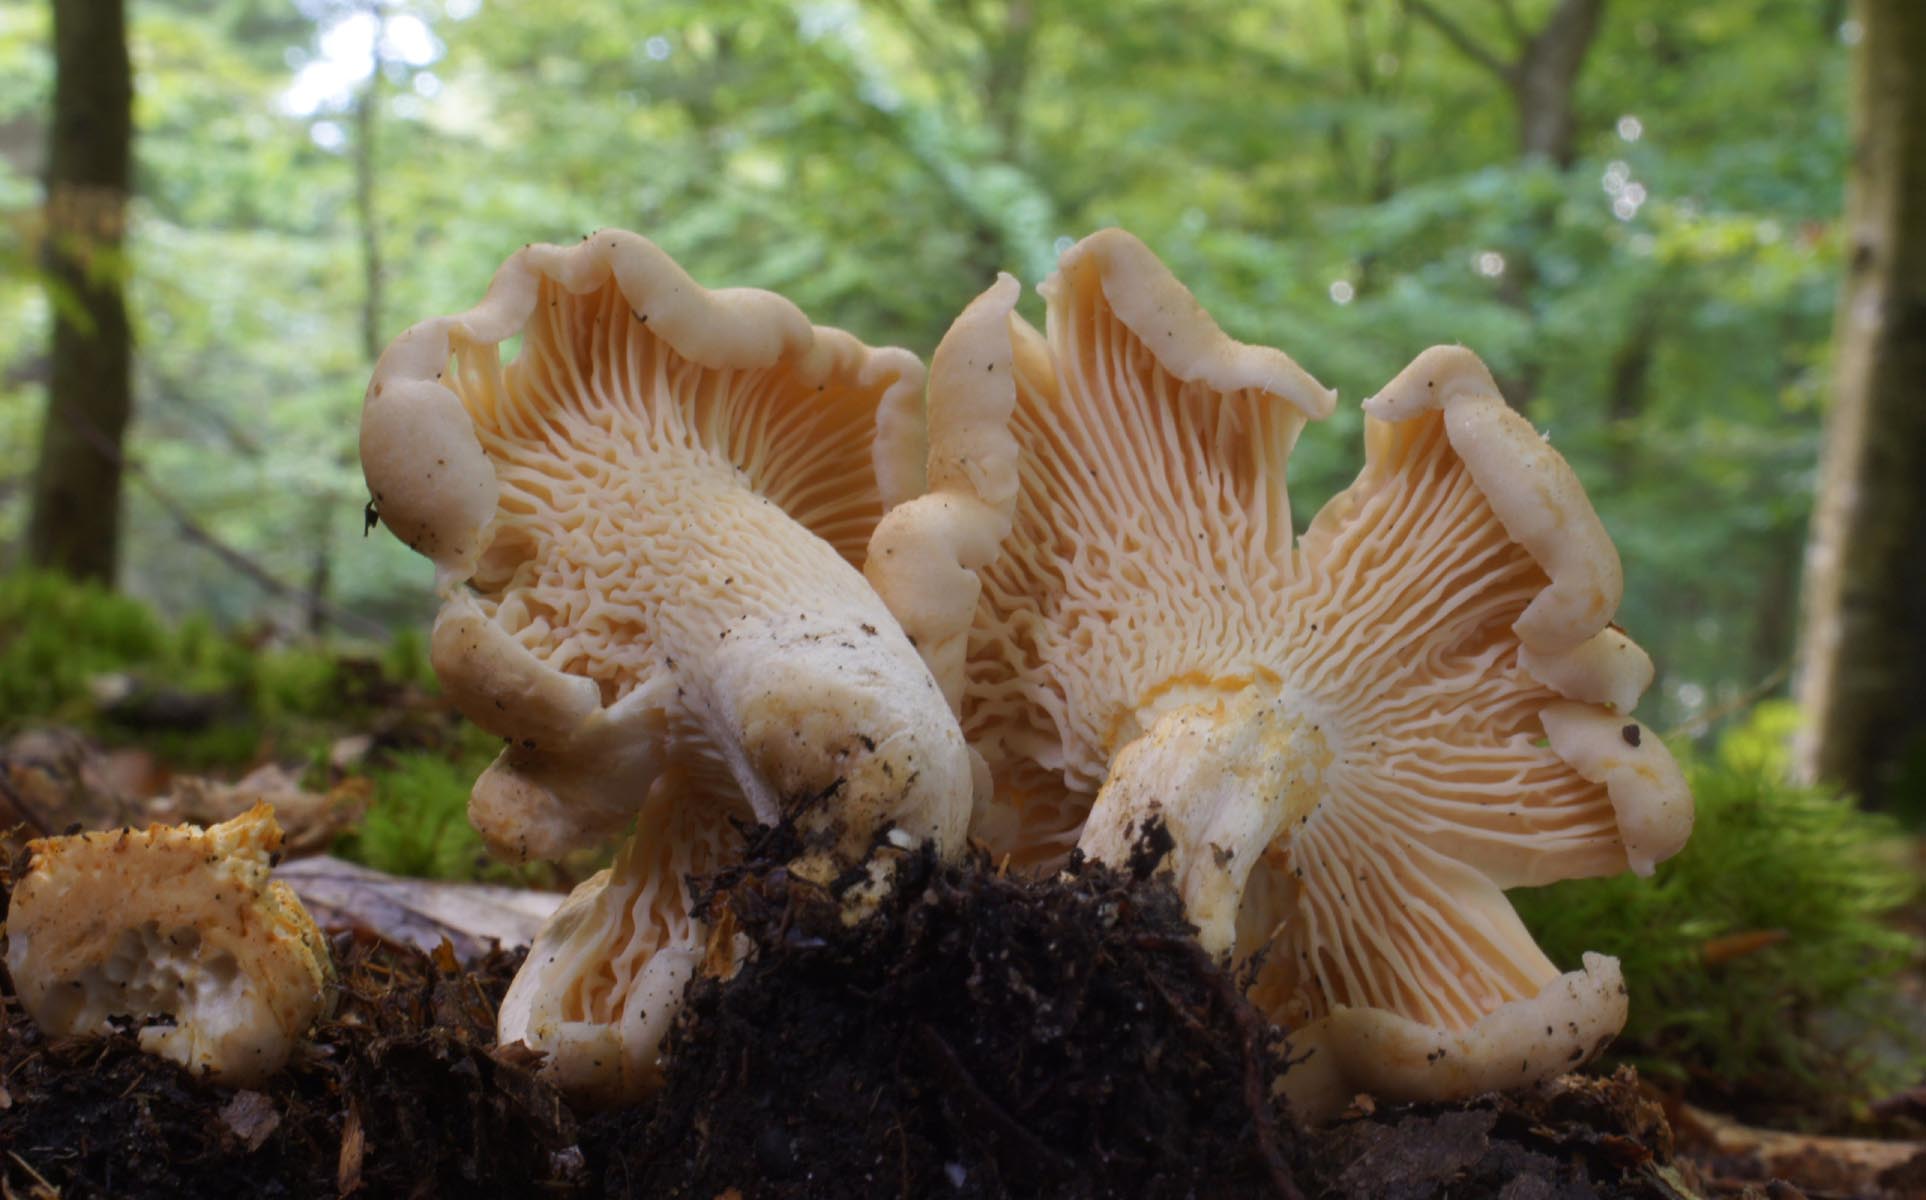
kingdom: Fungi
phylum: Basidiomycota
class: Agaricomycetes
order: Cantharellales
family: Hydnaceae
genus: Cantharellus
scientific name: Cantharellus pallens
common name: bleg kantarel
